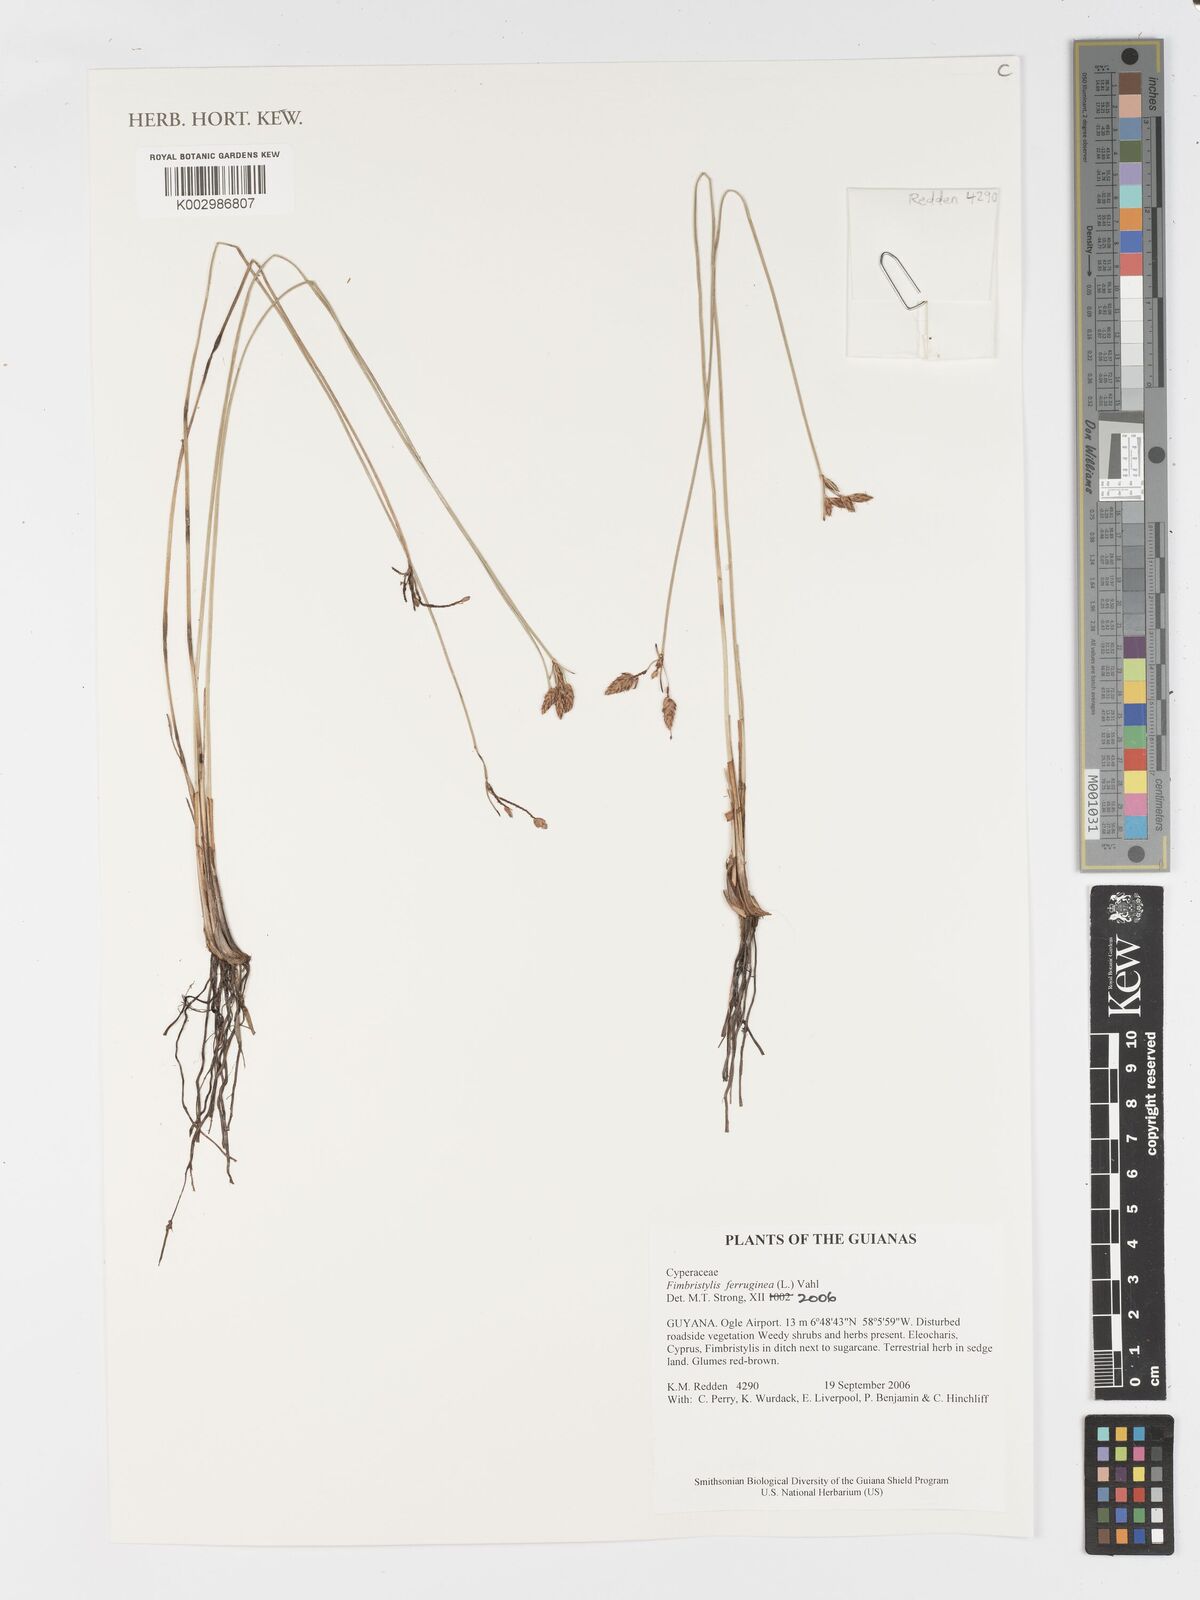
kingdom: Plantae
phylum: Tracheophyta
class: Liliopsida
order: Poales
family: Cyperaceae
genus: Fimbristylis
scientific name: Fimbristylis ferruginea
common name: West indian fimbry
